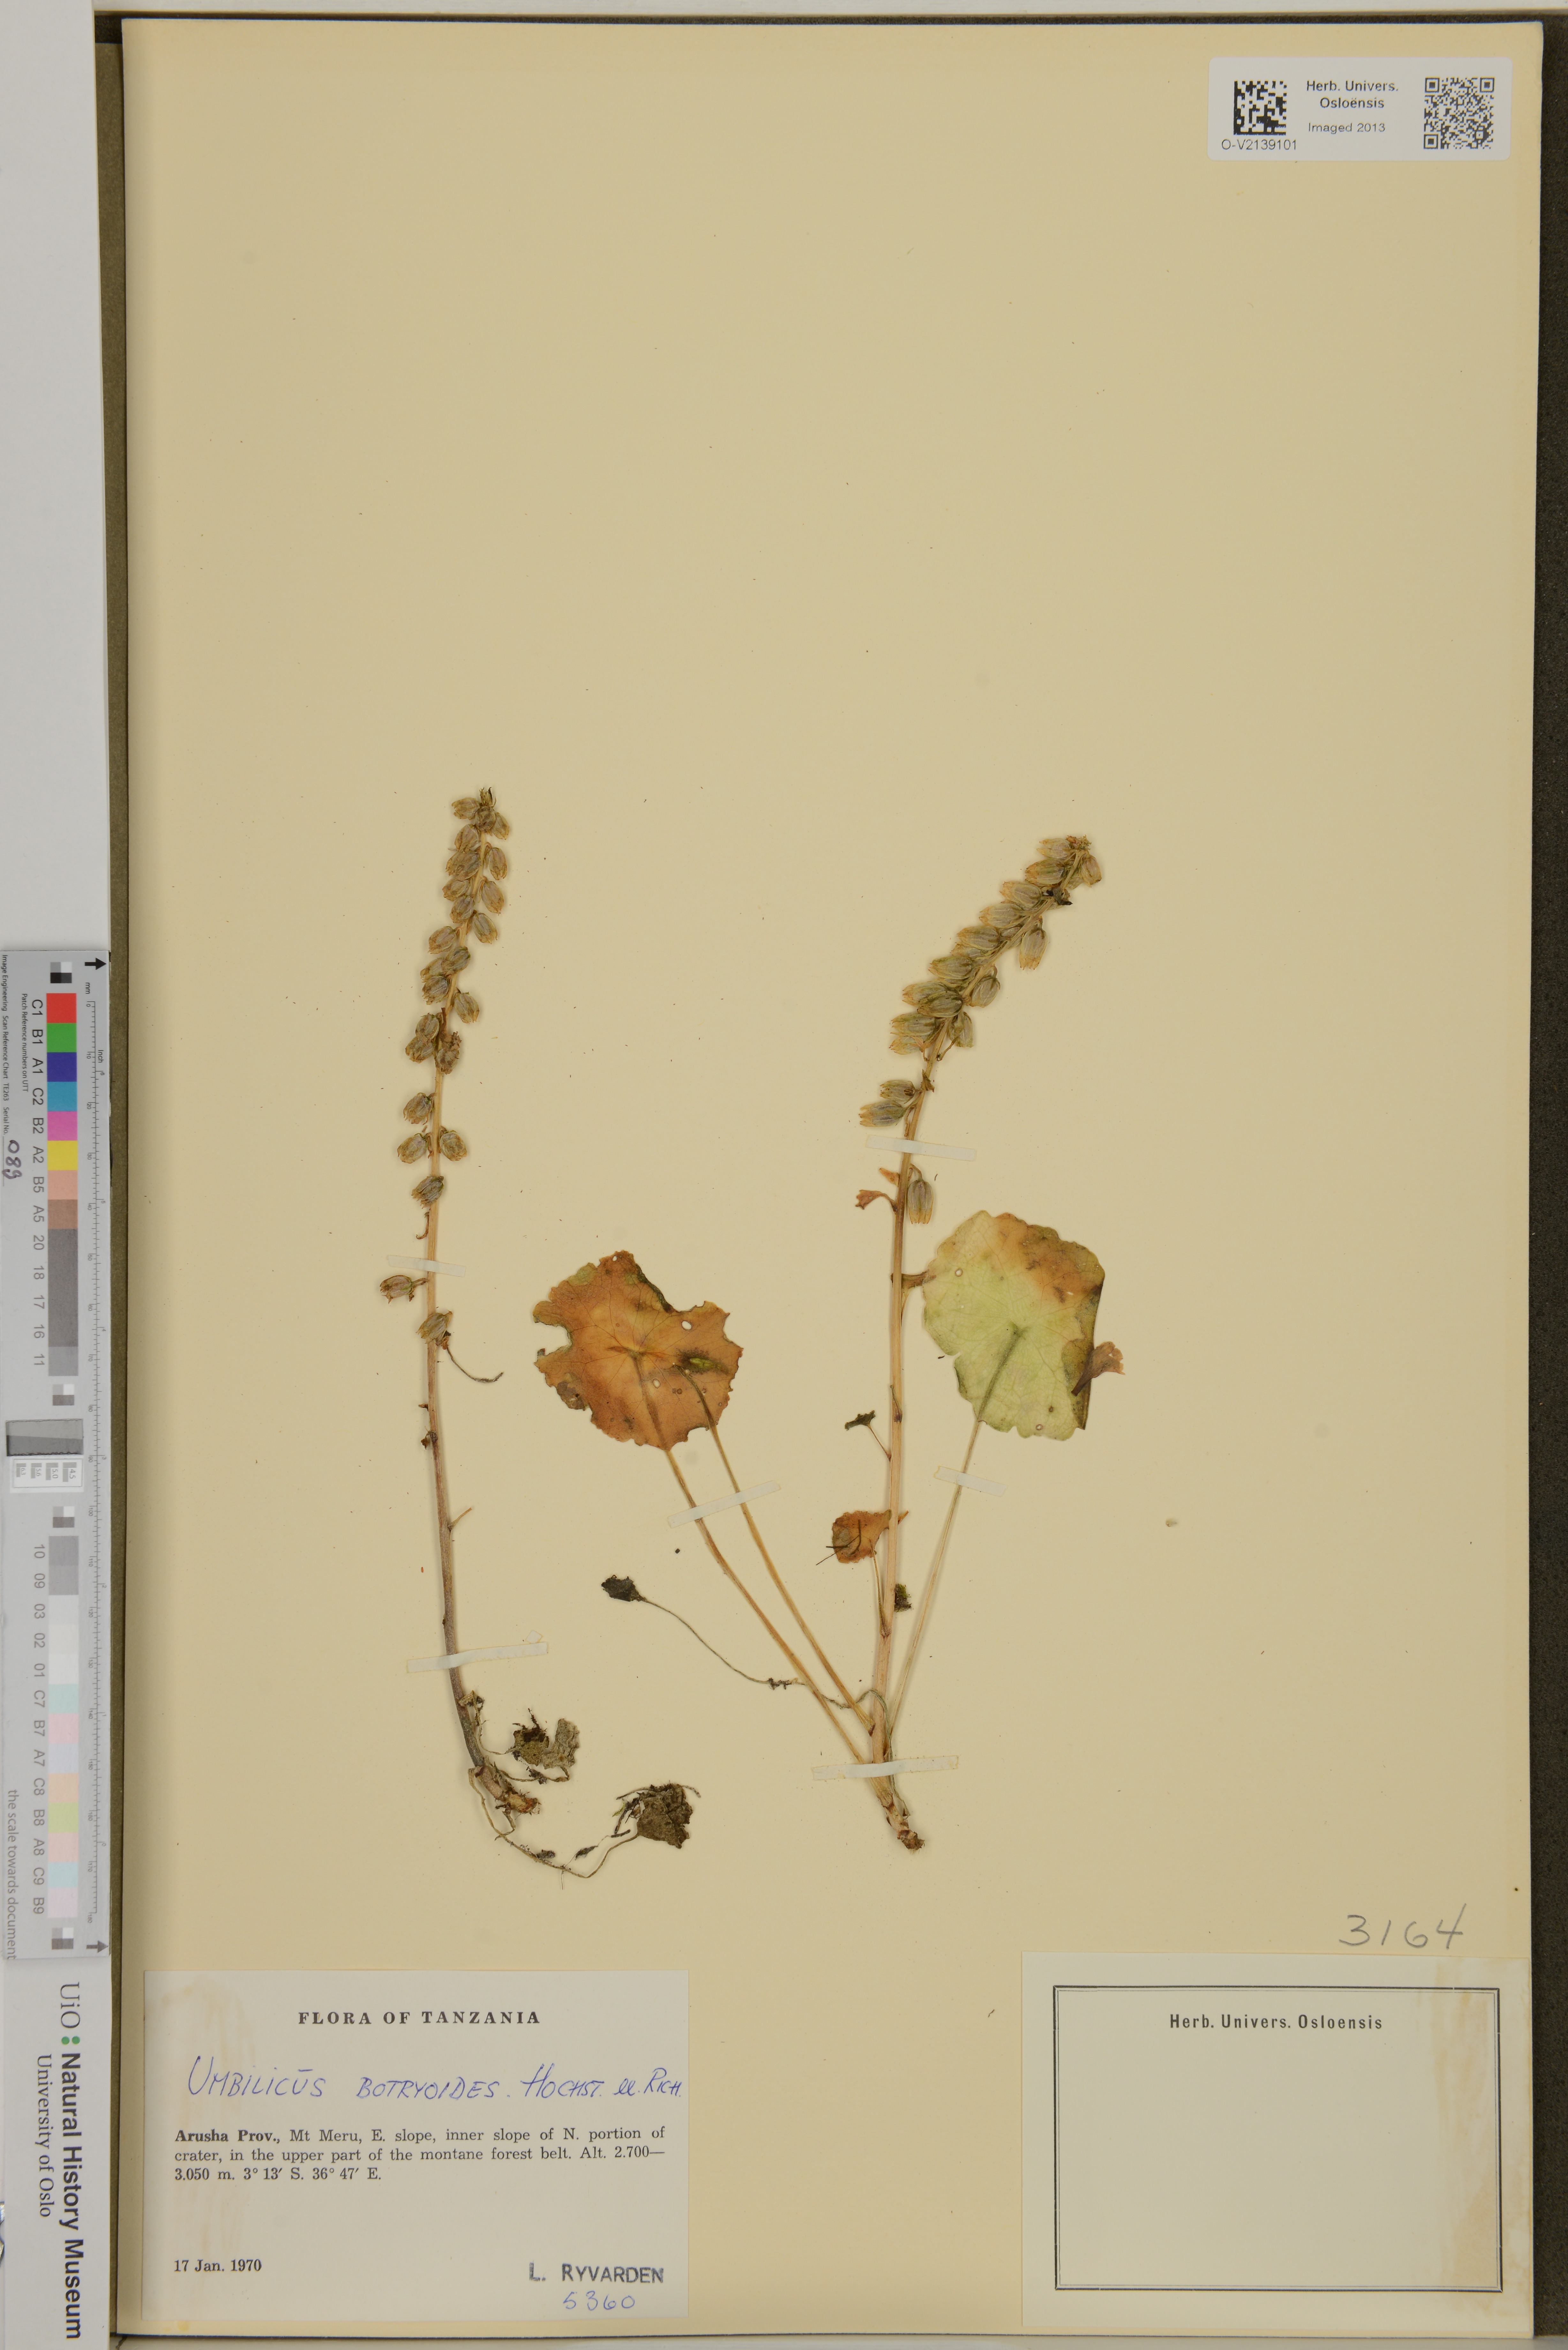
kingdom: Plantae
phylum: Tracheophyta
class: Magnoliopsida
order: Saxifragales
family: Crassulaceae
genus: Umbilicus
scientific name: Umbilicus botryoides
